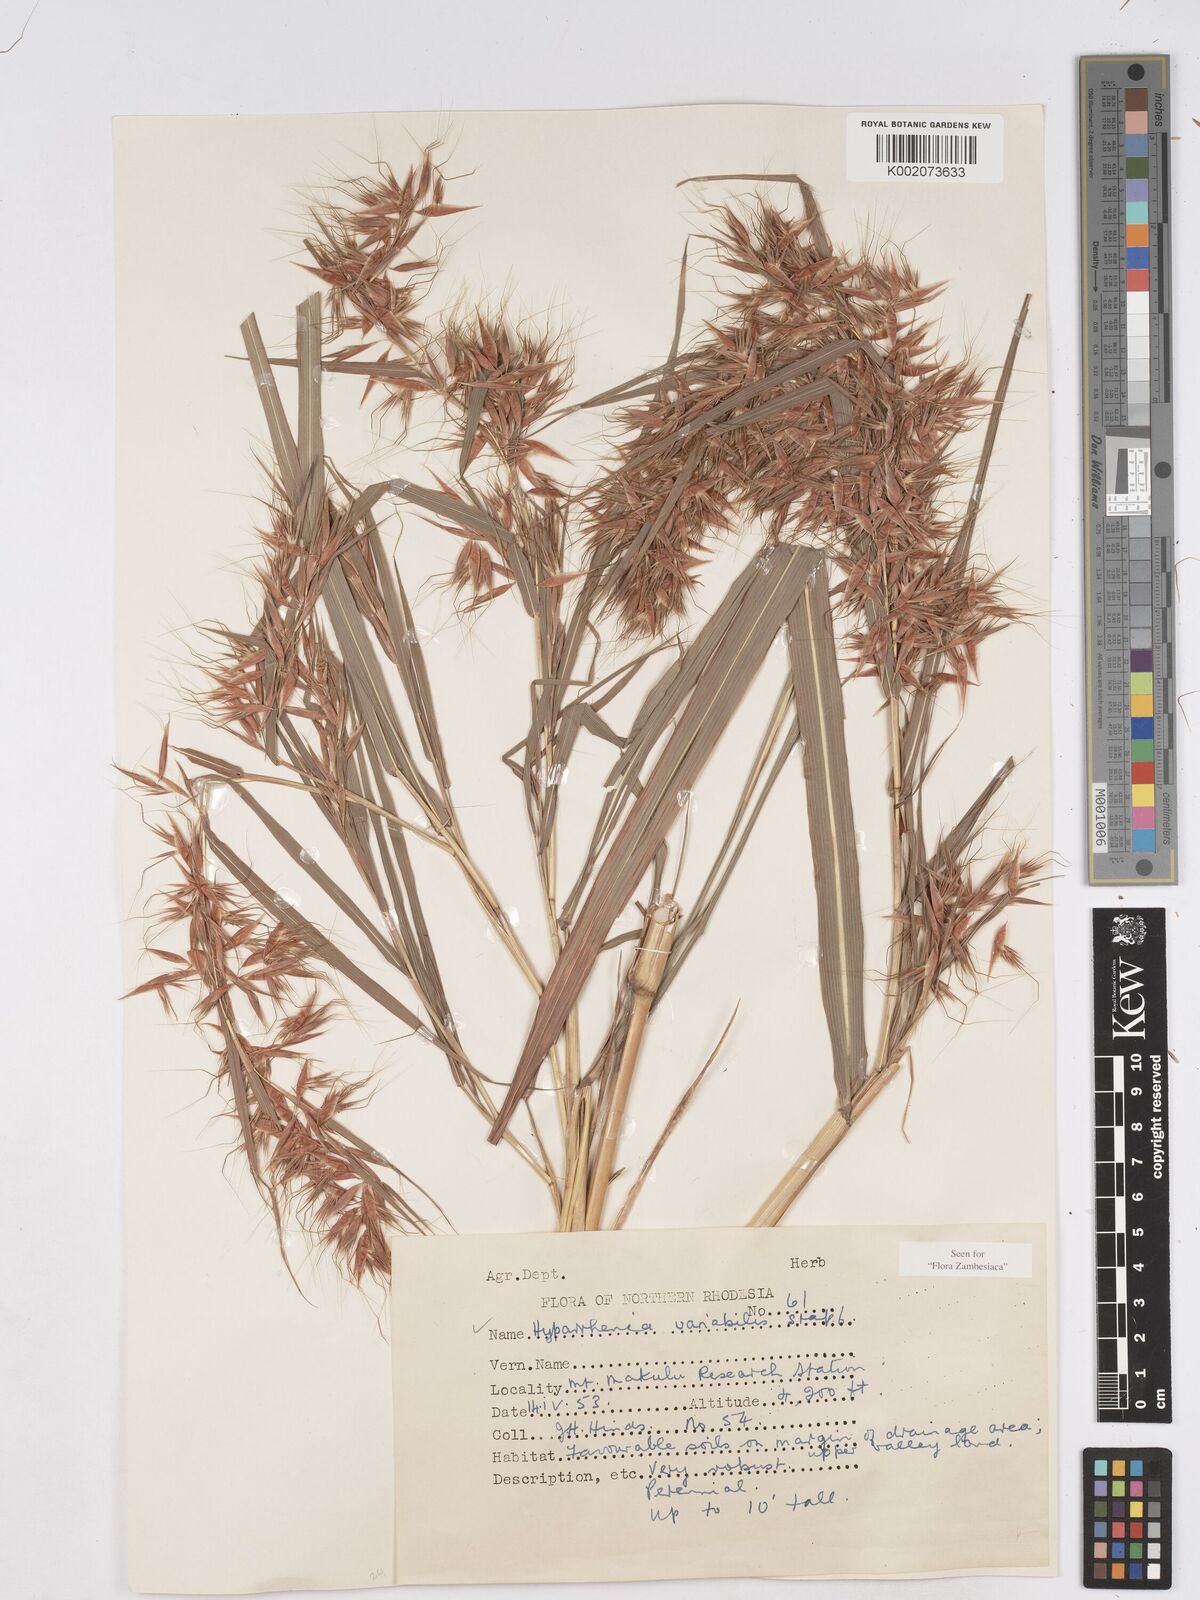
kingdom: Plantae
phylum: Tracheophyta
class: Liliopsida
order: Poales
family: Poaceae
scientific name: Poaceae
